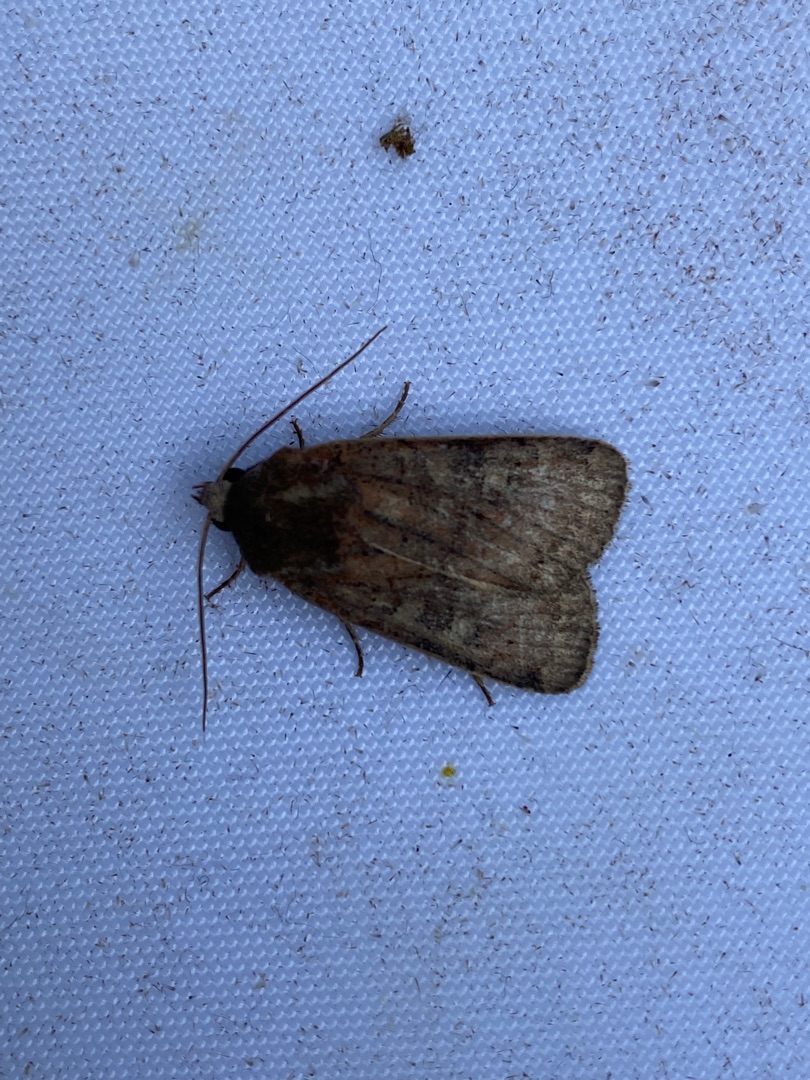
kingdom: Animalia
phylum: Arthropoda
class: Insecta
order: Lepidoptera
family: Noctuidae
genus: Diarsia
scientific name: Diarsia rubi
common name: Brombærtiggerugle
